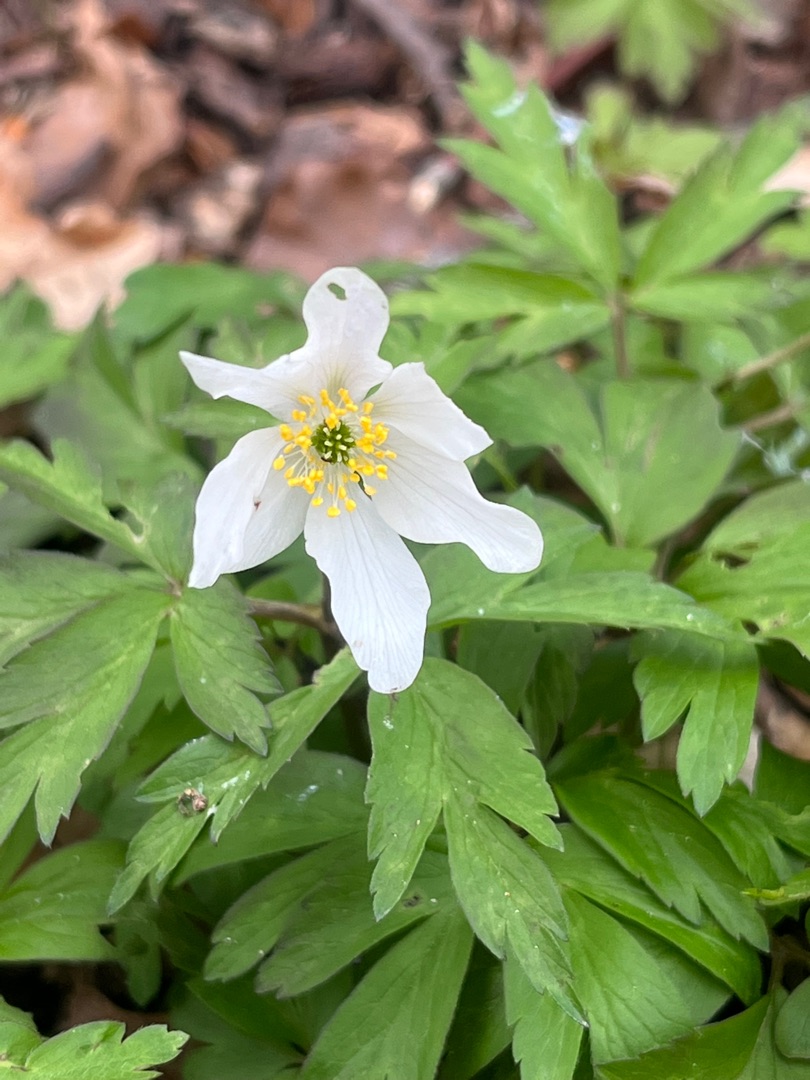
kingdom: Plantae
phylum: Tracheophyta
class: Magnoliopsida
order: Ranunculales
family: Ranunculaceae
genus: Anemone
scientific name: Anemone nemorosa
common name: Hvid anemone
